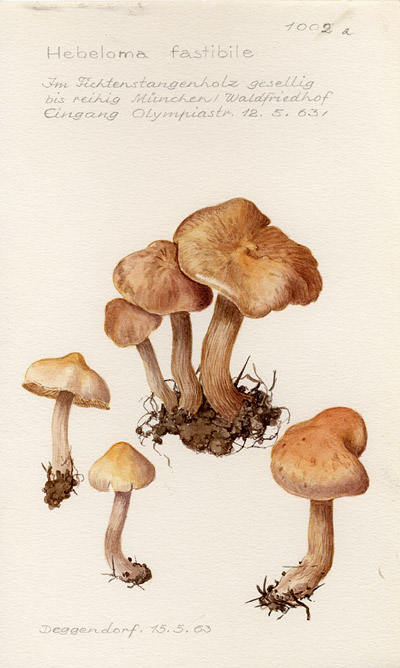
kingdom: Fungi
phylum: Basidiomycota
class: Agaricomycetes
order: Agaricales
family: Hymenogastraceae
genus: Hebeloma
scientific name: Hebeloma
